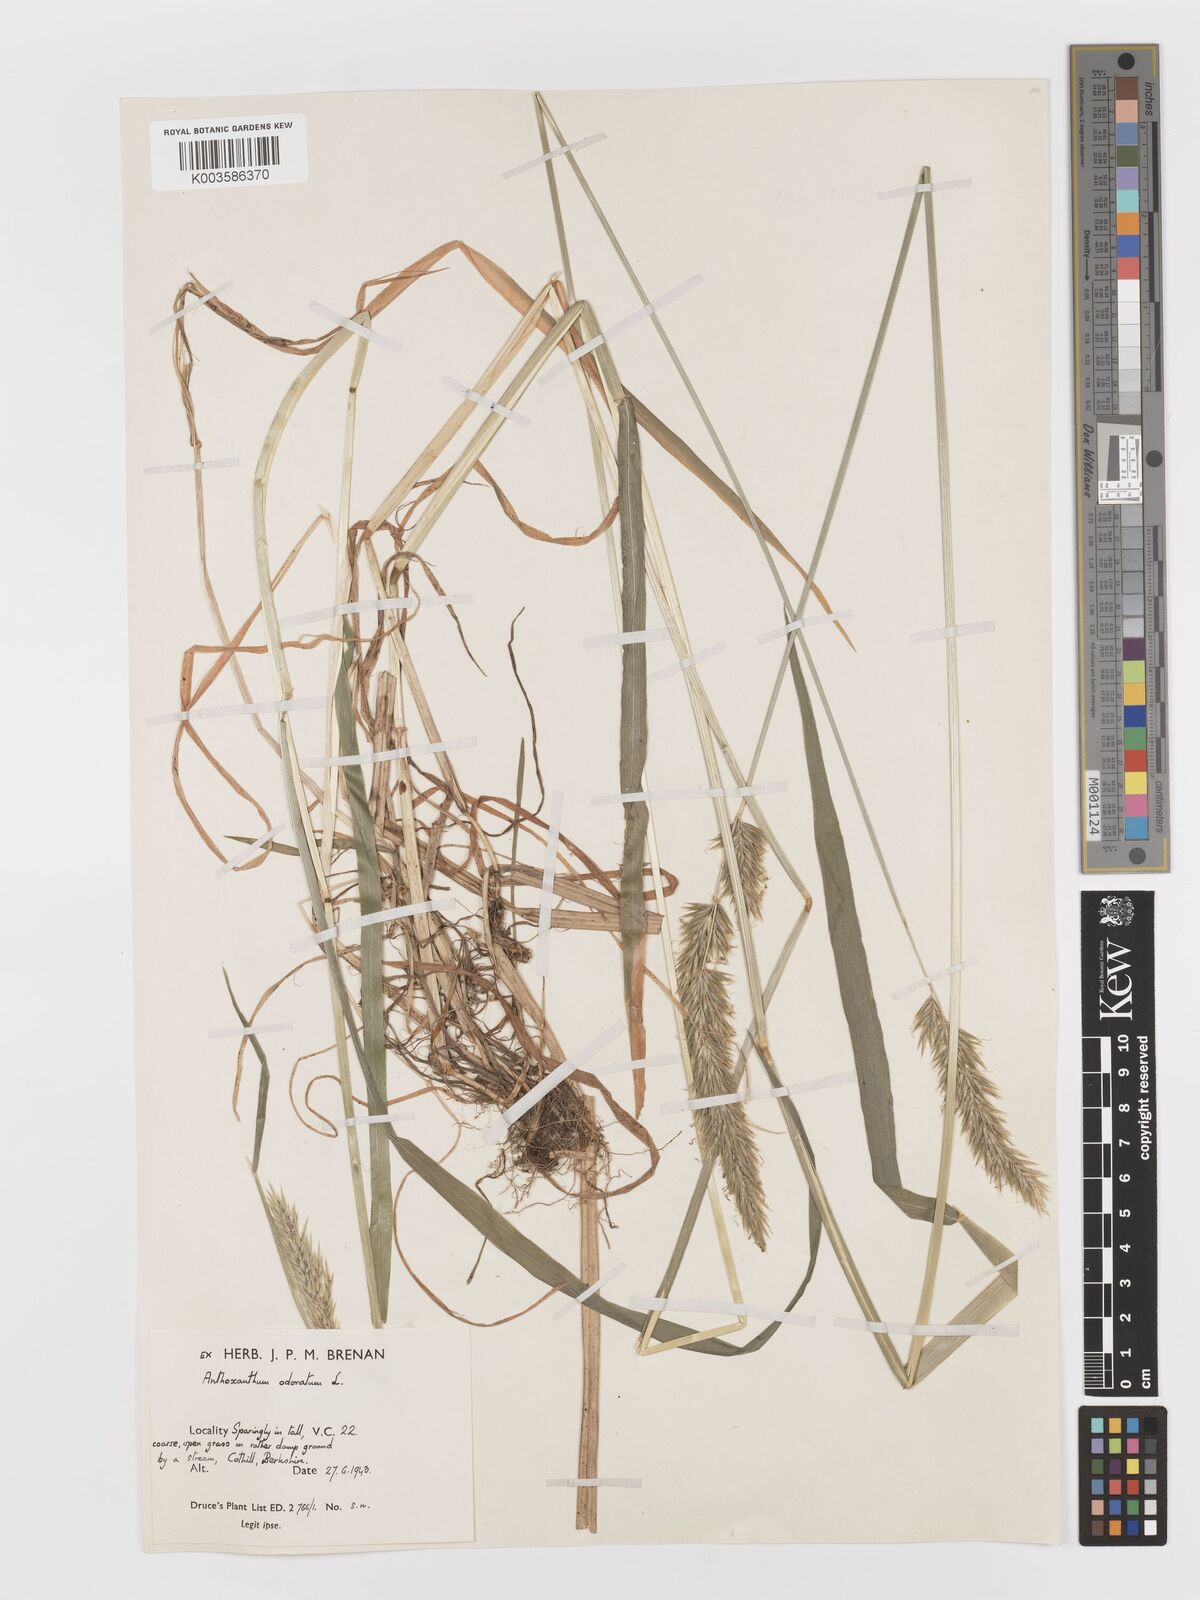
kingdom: Plantae
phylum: Tracheophyta
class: Liliopsida
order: Poales
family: Poaceae
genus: Anthoxanthum
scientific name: Anthoxanthum odoratum
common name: Sweet vernalgrass
